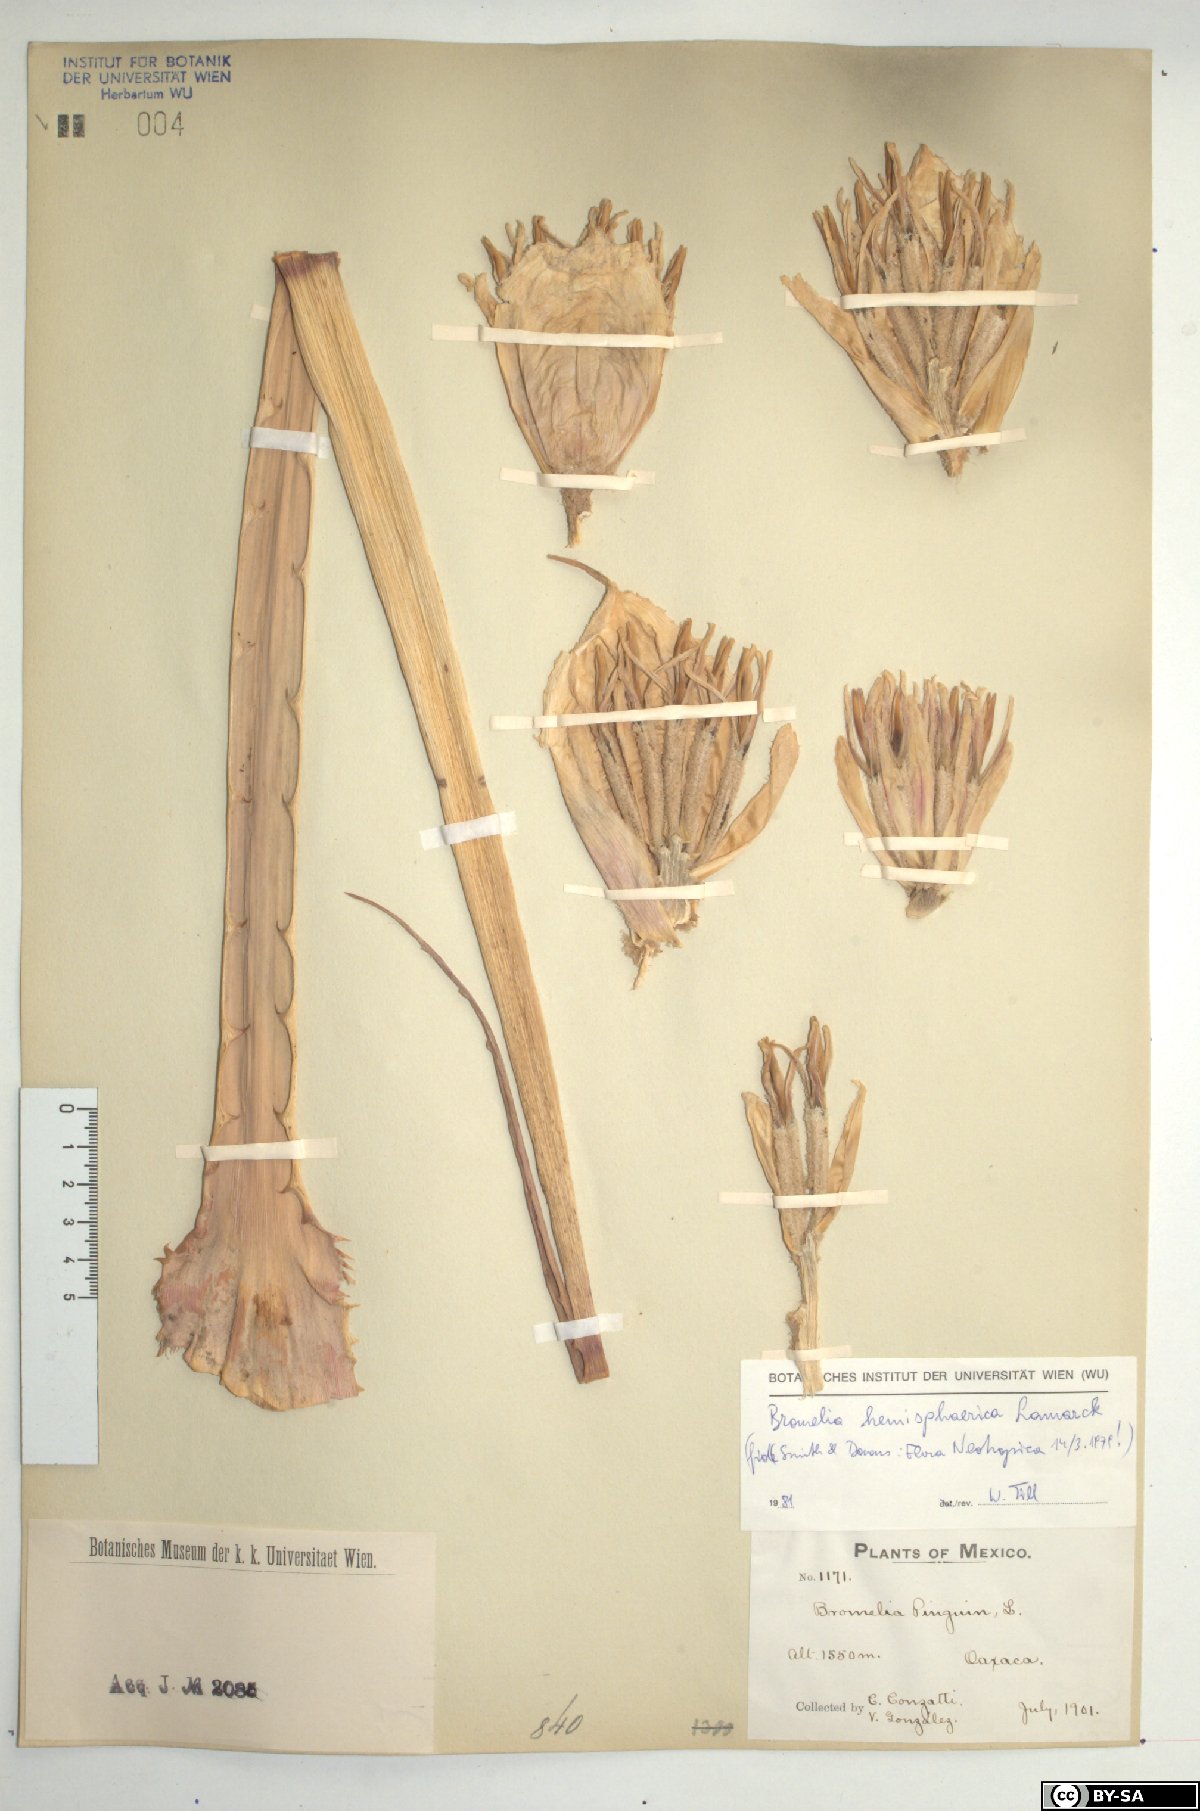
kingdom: Plantae
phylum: Tracheophyta
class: Liliopsida
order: Poales
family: Bromeliaceae
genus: Bromelia
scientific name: Bromelia hemispherica
